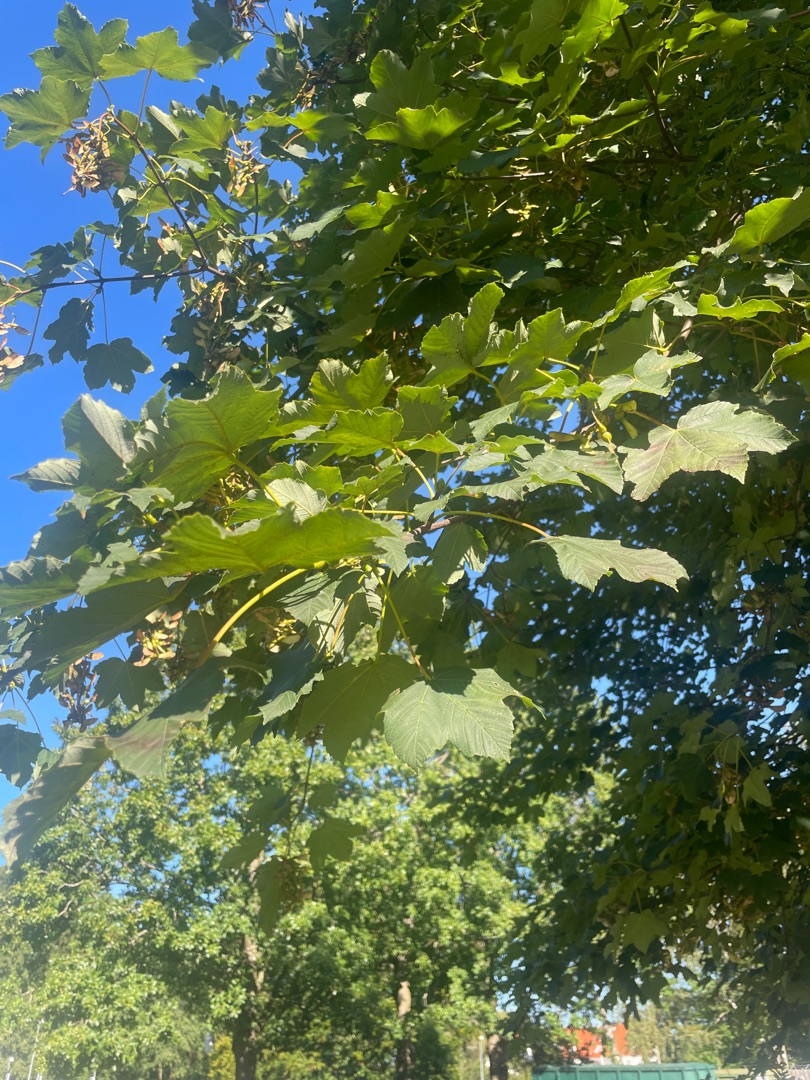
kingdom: Plantae
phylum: Tracheophyta
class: Magnoliopsida
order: Sapindales
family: Sapindaceae
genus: Acer
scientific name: Acer pseudoplatanus
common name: Ahorn
